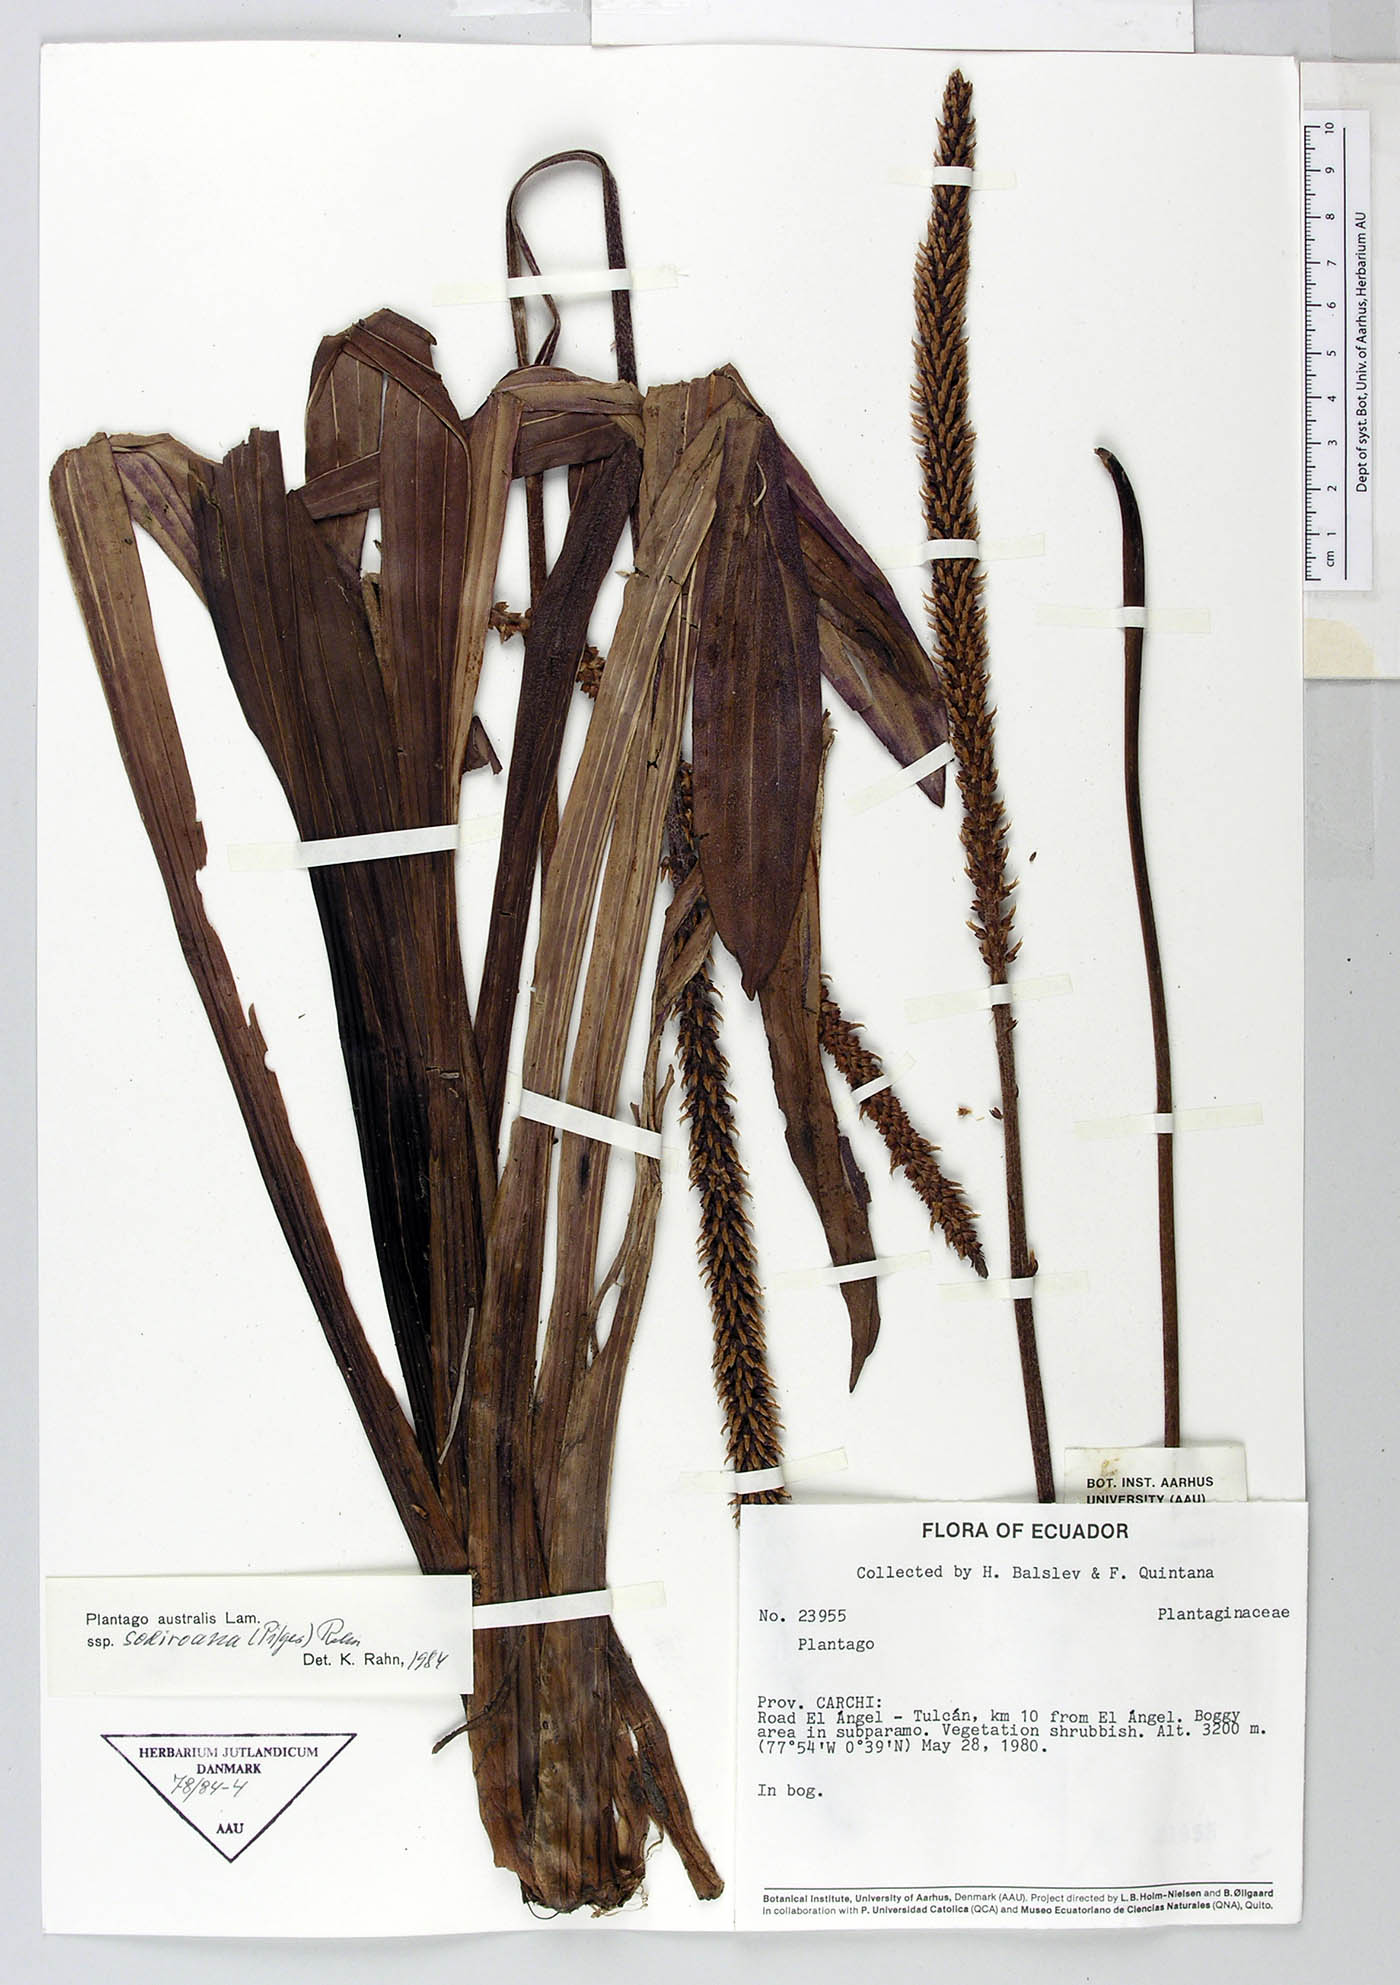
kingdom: Plantae
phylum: Tracheophyta
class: Magnoliopsida
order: Lamiales
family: Plantaginaceae
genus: Plantago
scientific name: Plantago australis
